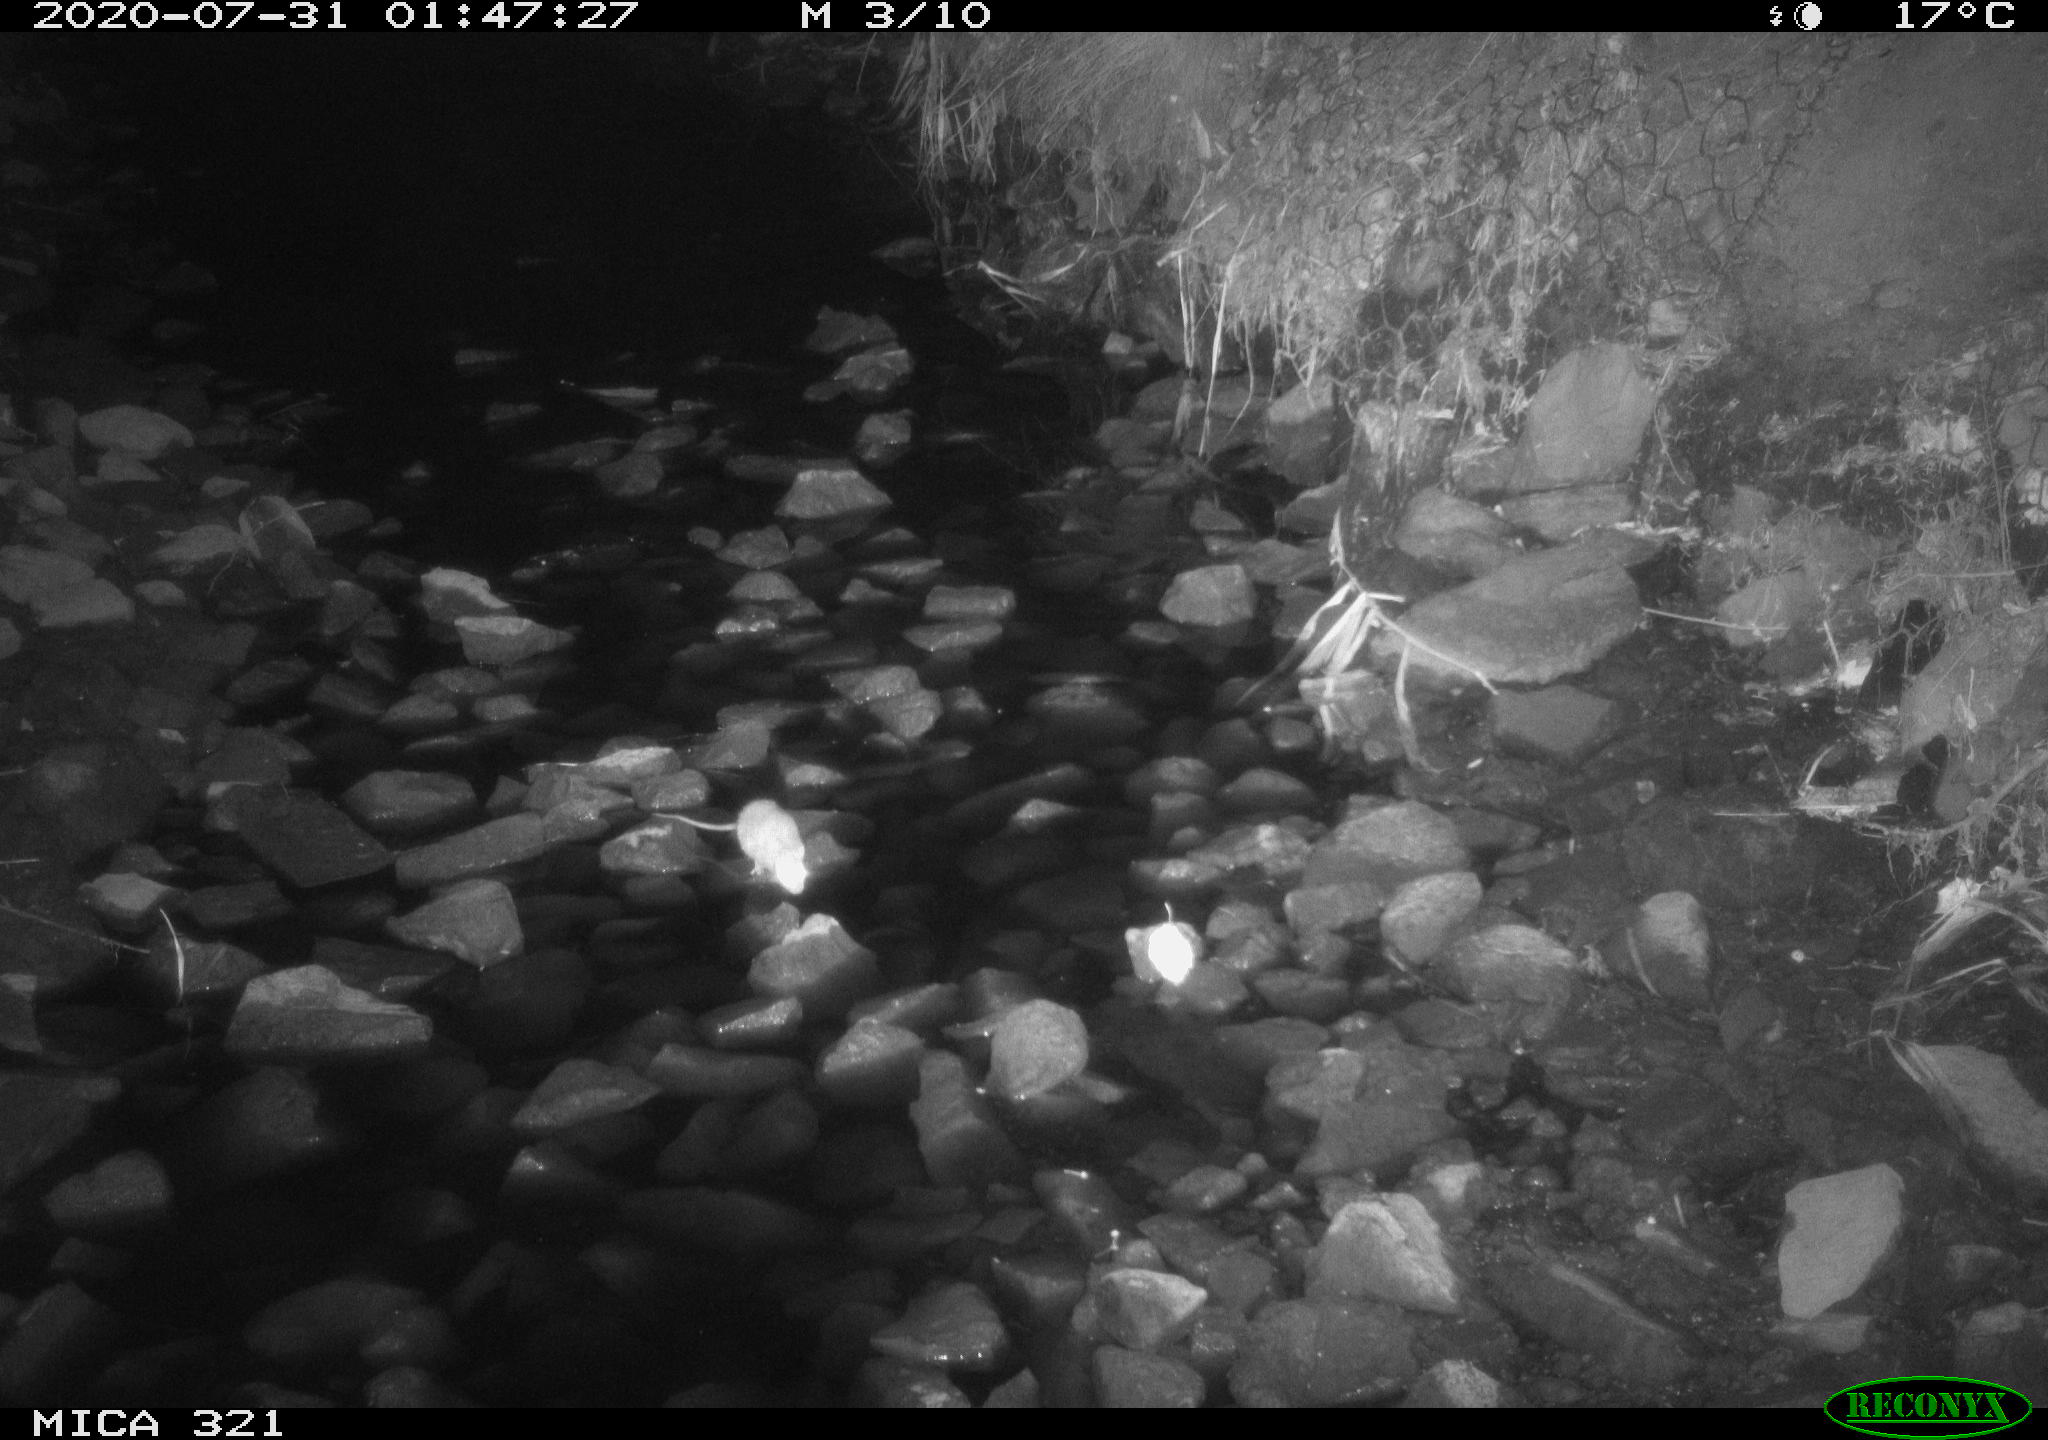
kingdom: Animalia
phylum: Chordata
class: Mammalia
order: Rodentia
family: Muridae
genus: Rattus
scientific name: Rattus norvegicus
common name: Brown rat
